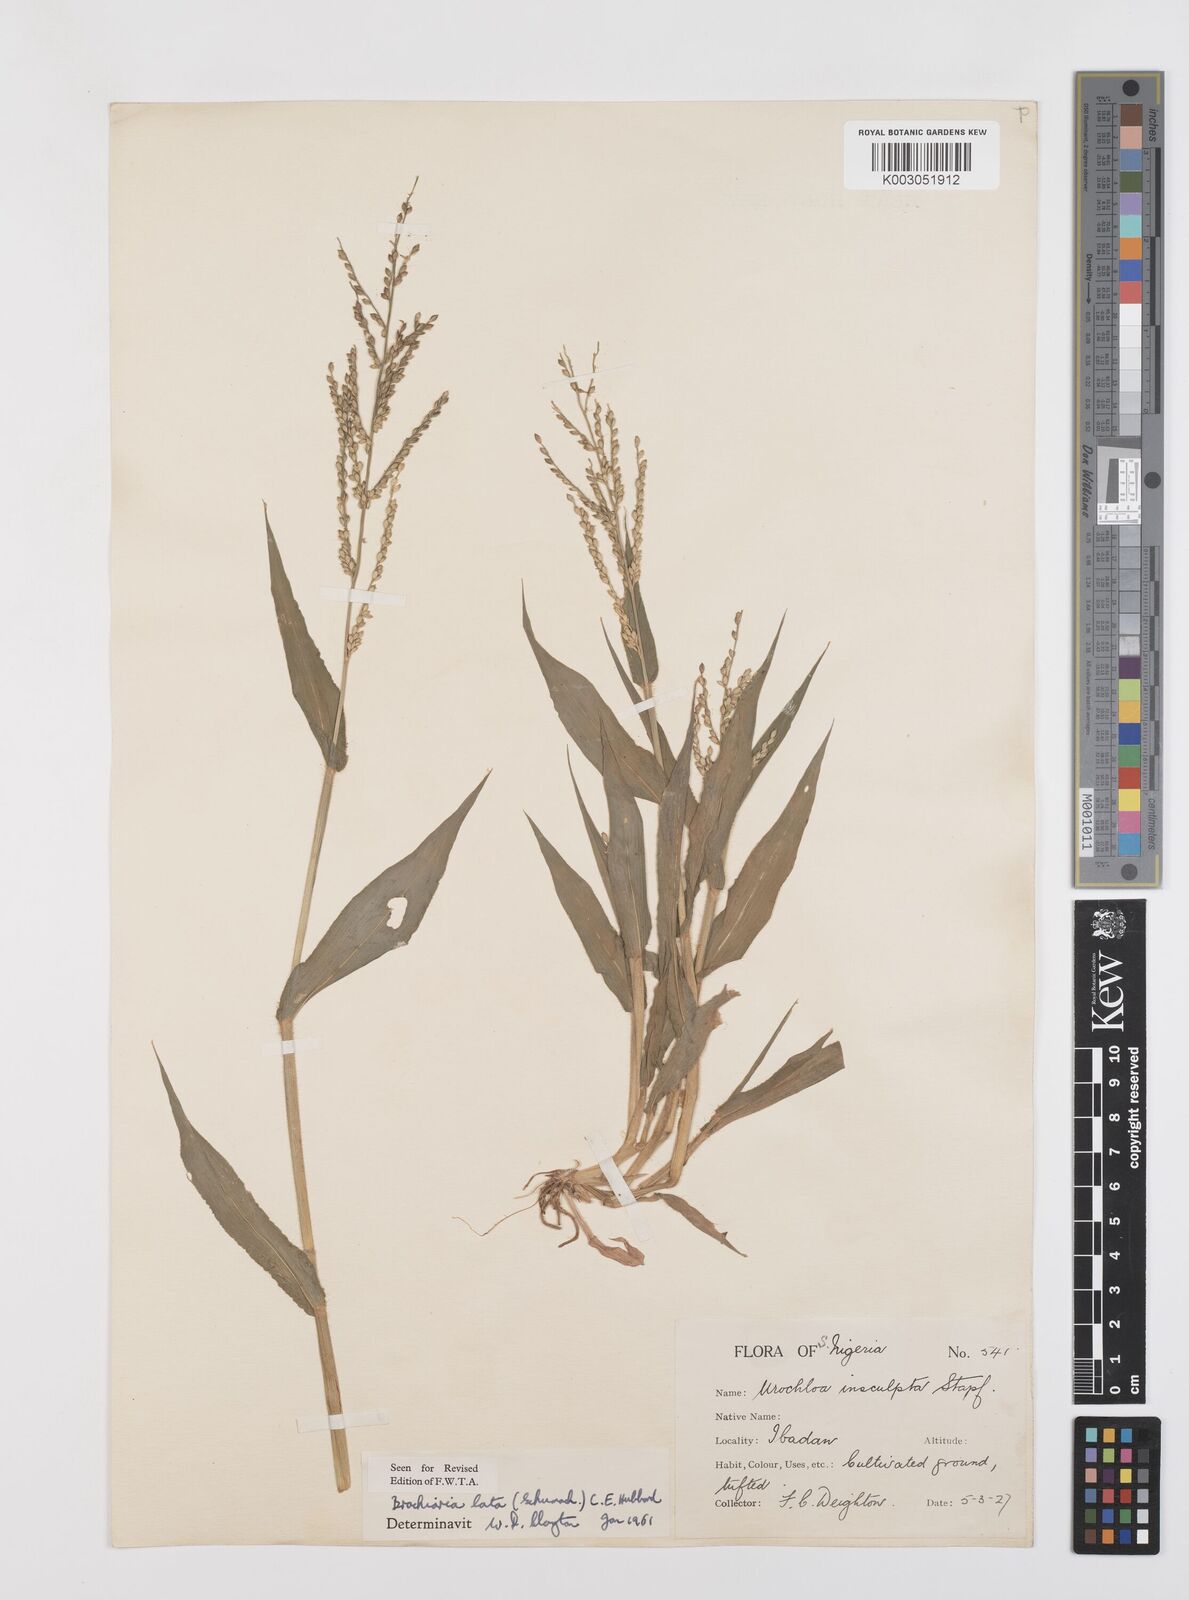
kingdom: Plantae
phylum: Tracheophyta
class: Liliopsida
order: Poales
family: Poaceae
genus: Urochloa
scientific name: Urochloa lata
